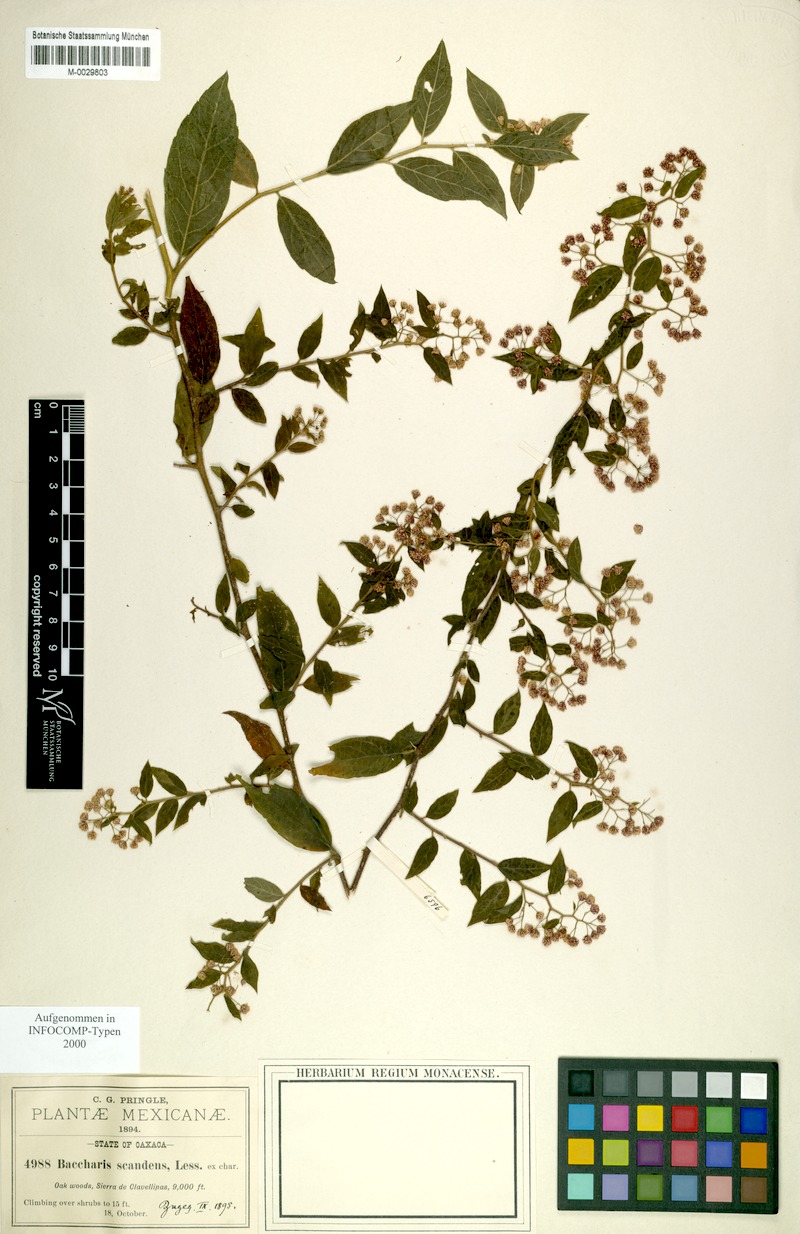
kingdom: Plantae
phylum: Tracheophyta
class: Magnoliopsida
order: Asterales
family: Asteraceae
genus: Archibaccharis
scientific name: Archibaccharis albescens
